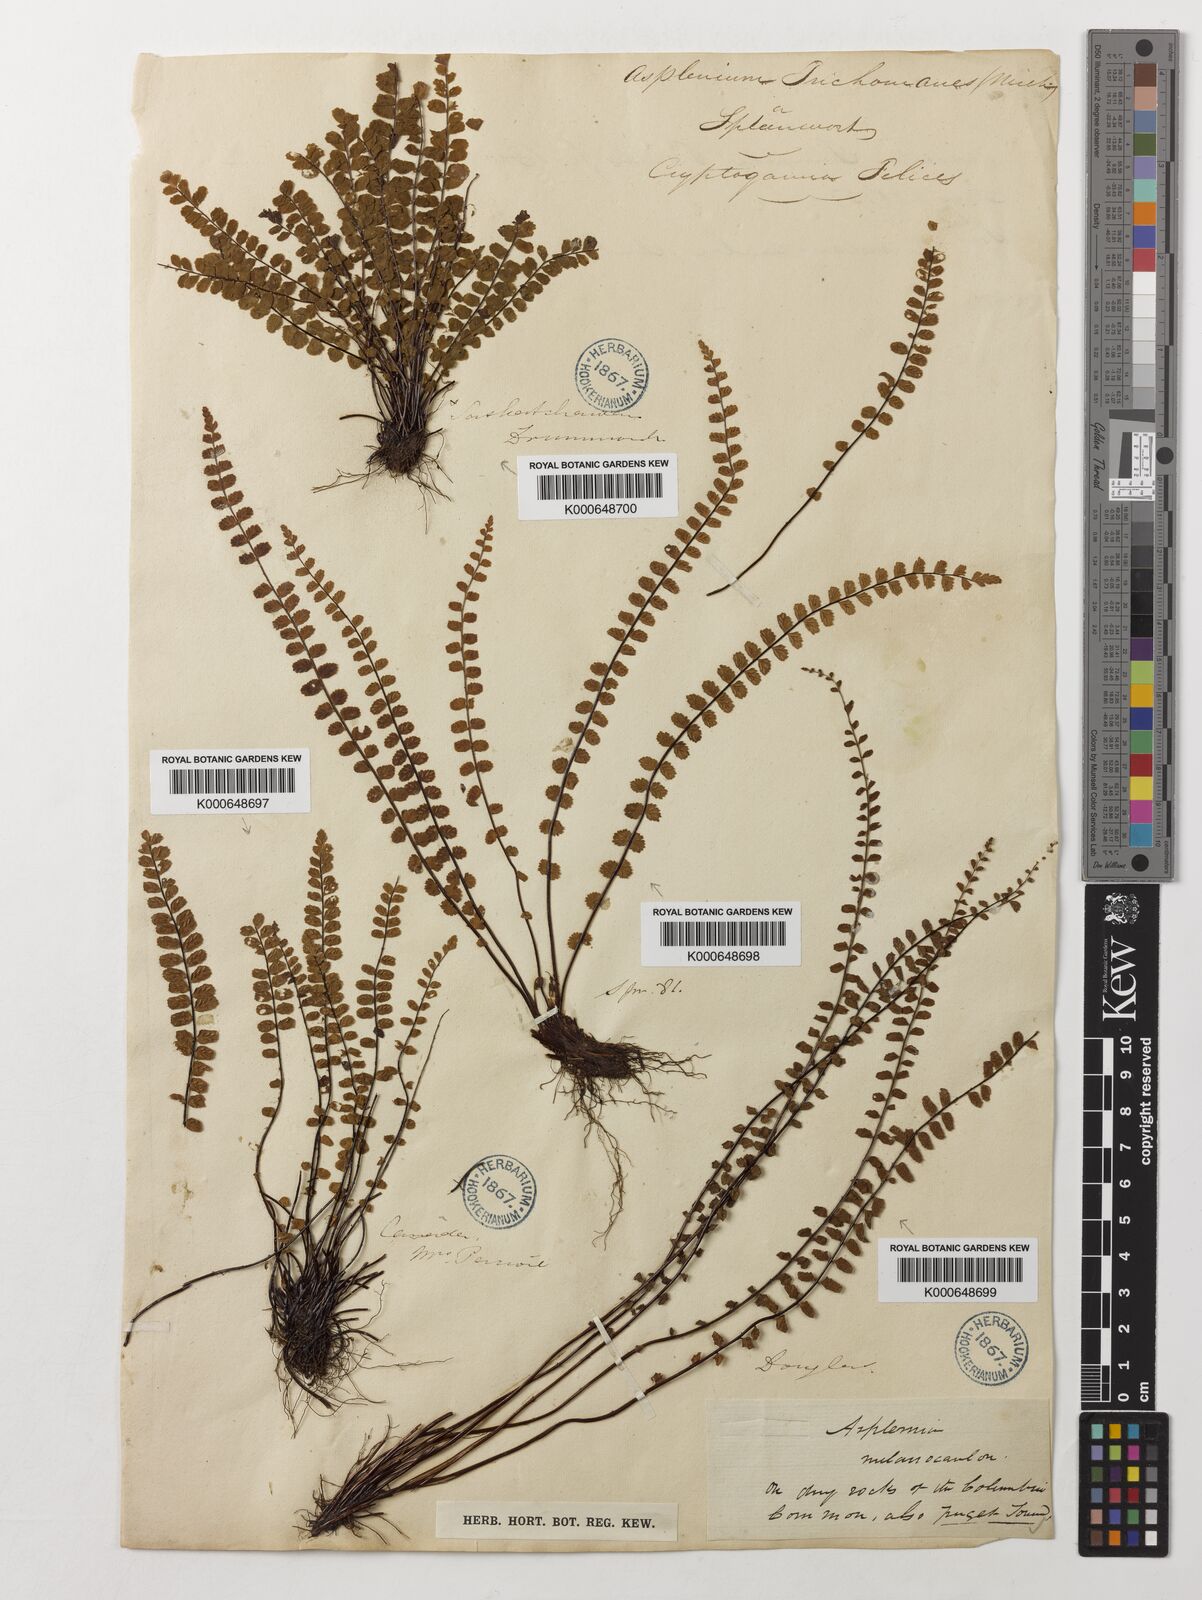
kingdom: Plantae
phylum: Tracheophyta
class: Polypodiopsida
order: Polypodiales
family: Aspleniaceae
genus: Asplenium
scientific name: Asplenium trichomanes
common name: Maidenhair spleenwort
